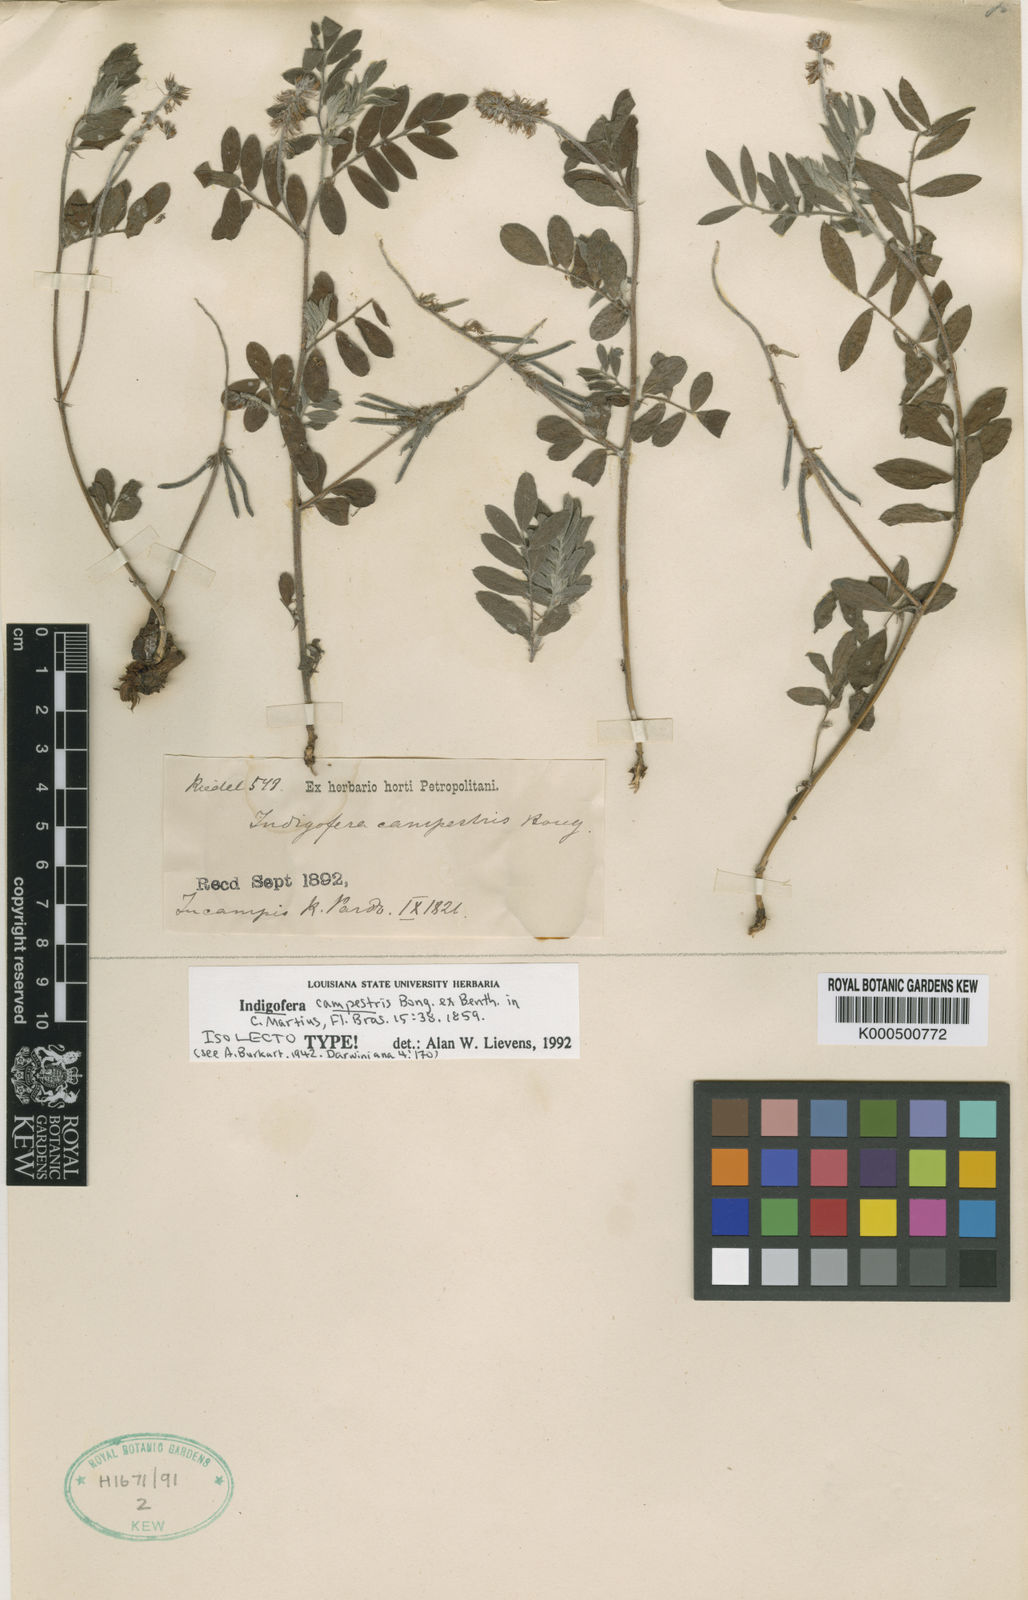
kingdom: Plantae
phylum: Tracheophyta
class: Magnoliopsida
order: Fabales
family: Fabaceae
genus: Indigofera
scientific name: Indigofera campestris
